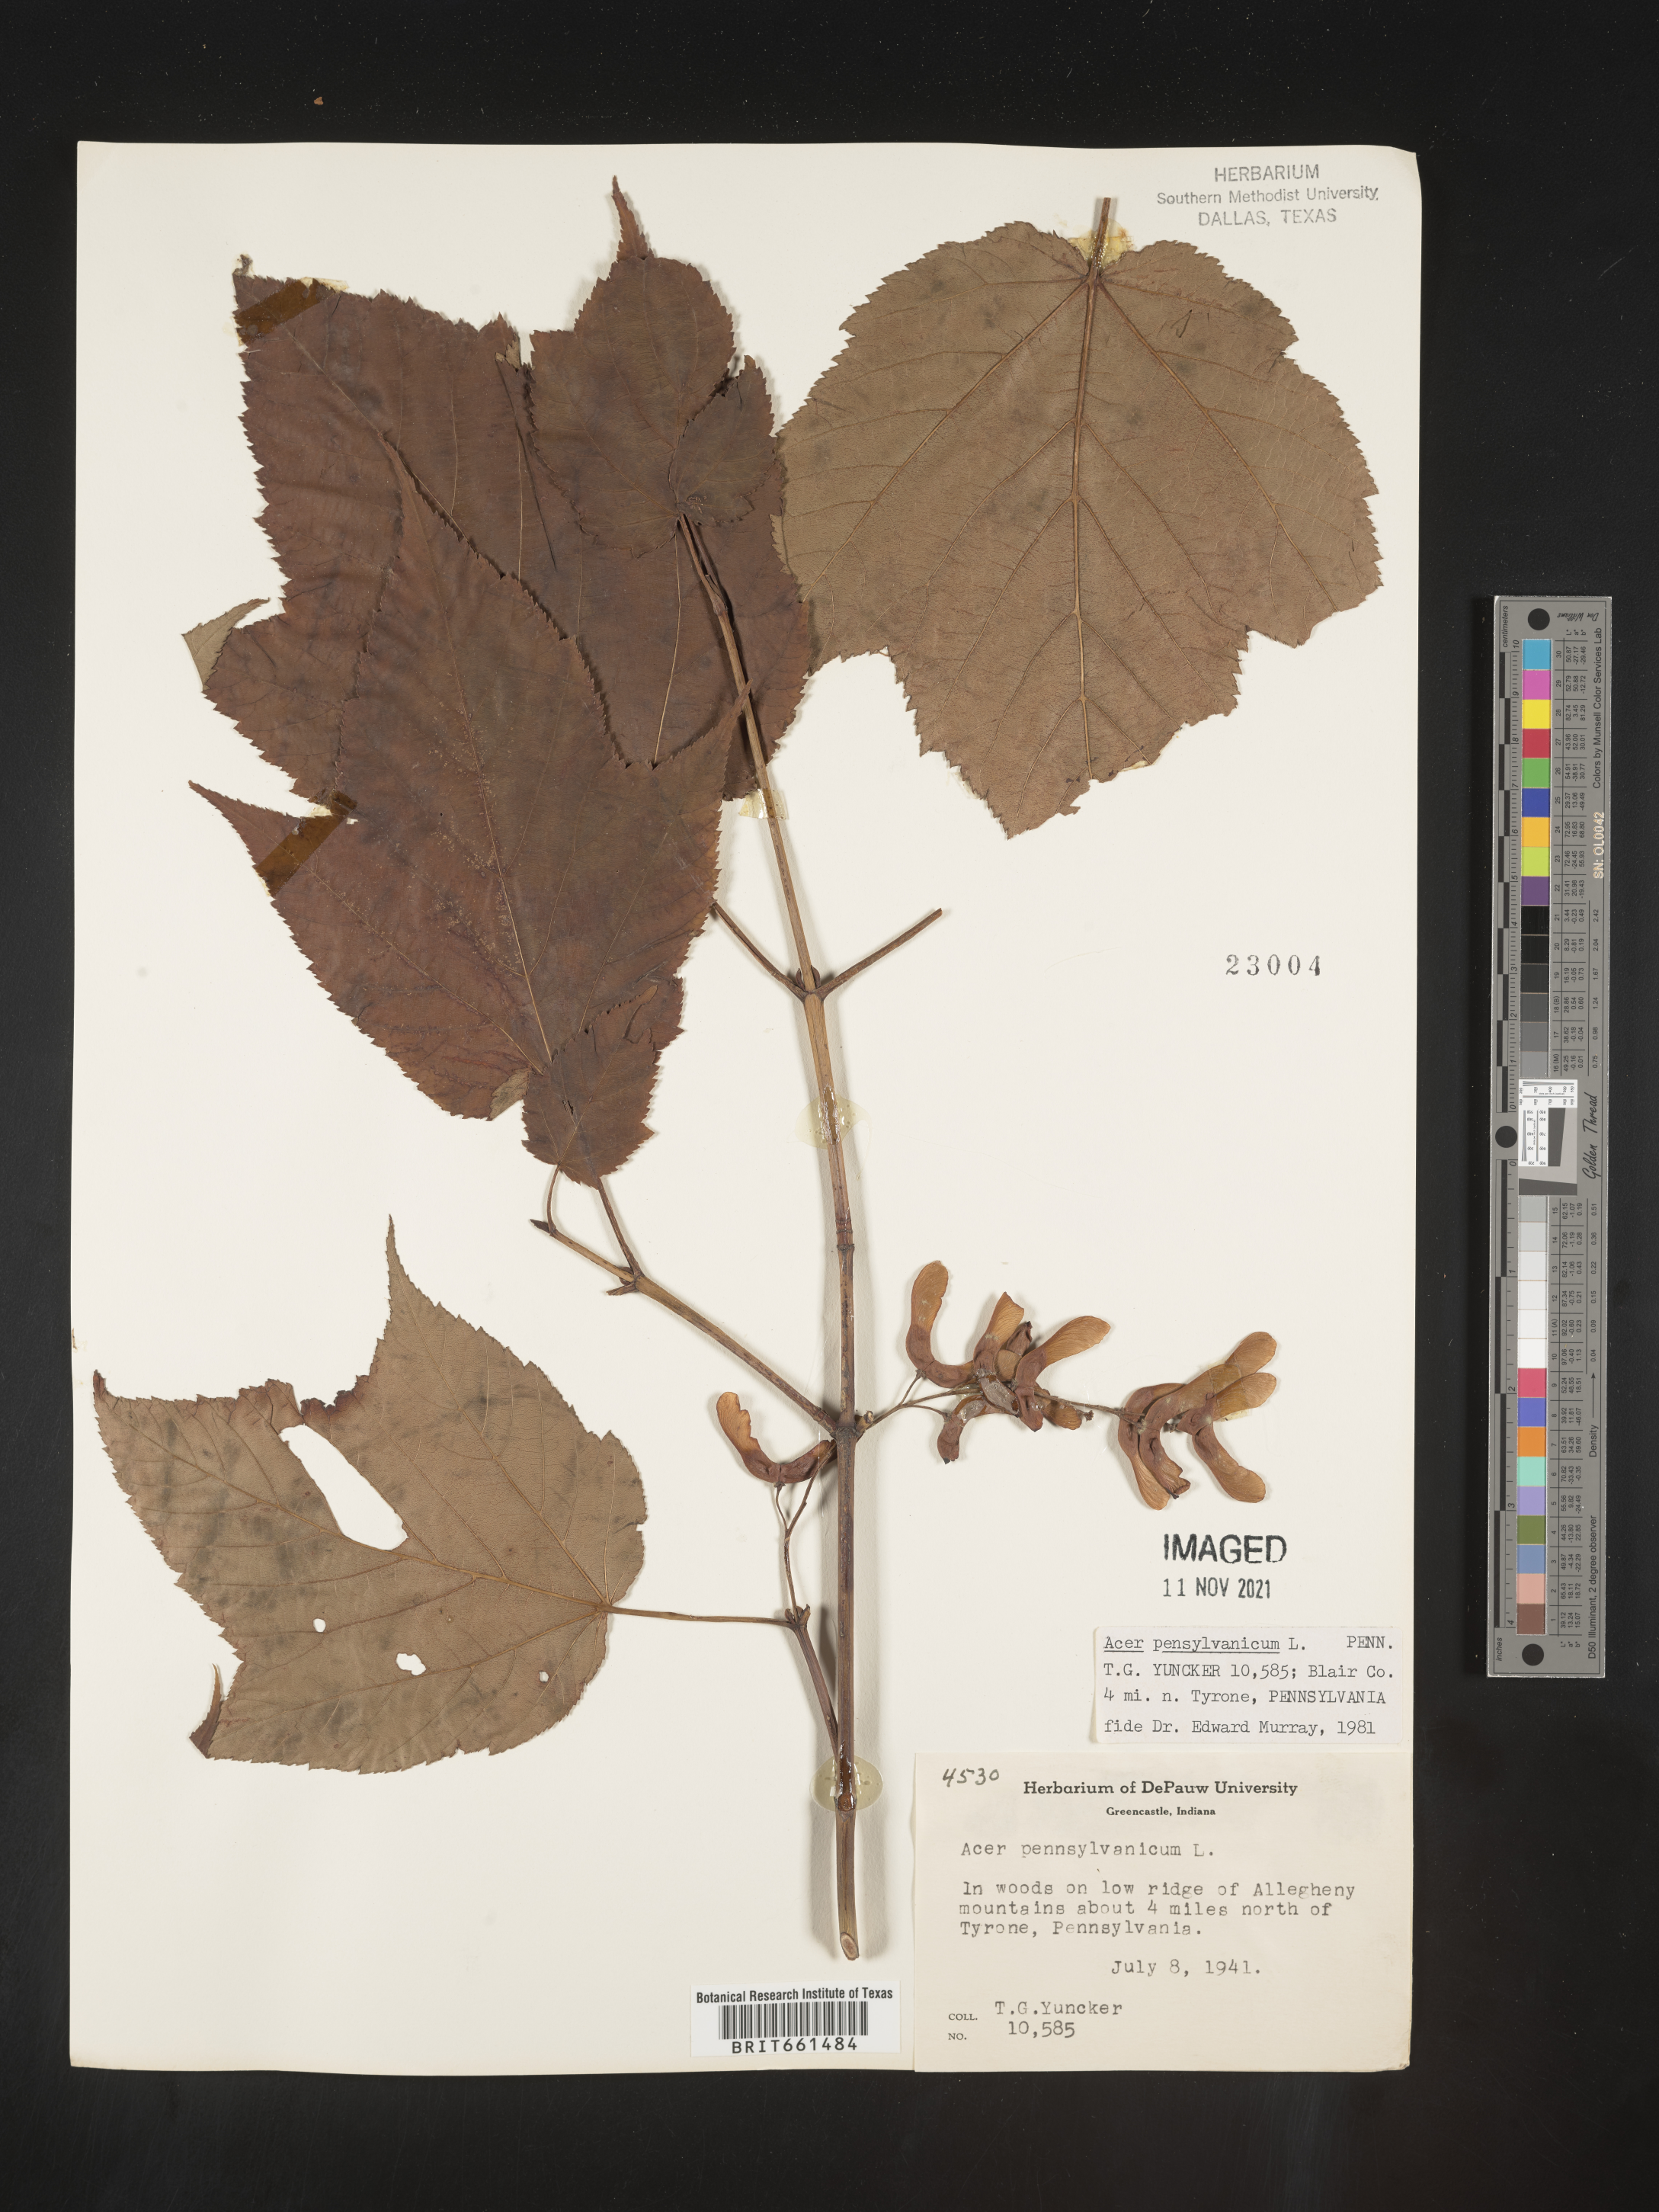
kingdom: Plantae
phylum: Tracheophyta
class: Magnoliopsida
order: Sapindales
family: Sapindaceae
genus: Acer
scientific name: Acer pensylvanicum
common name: Moosewood
